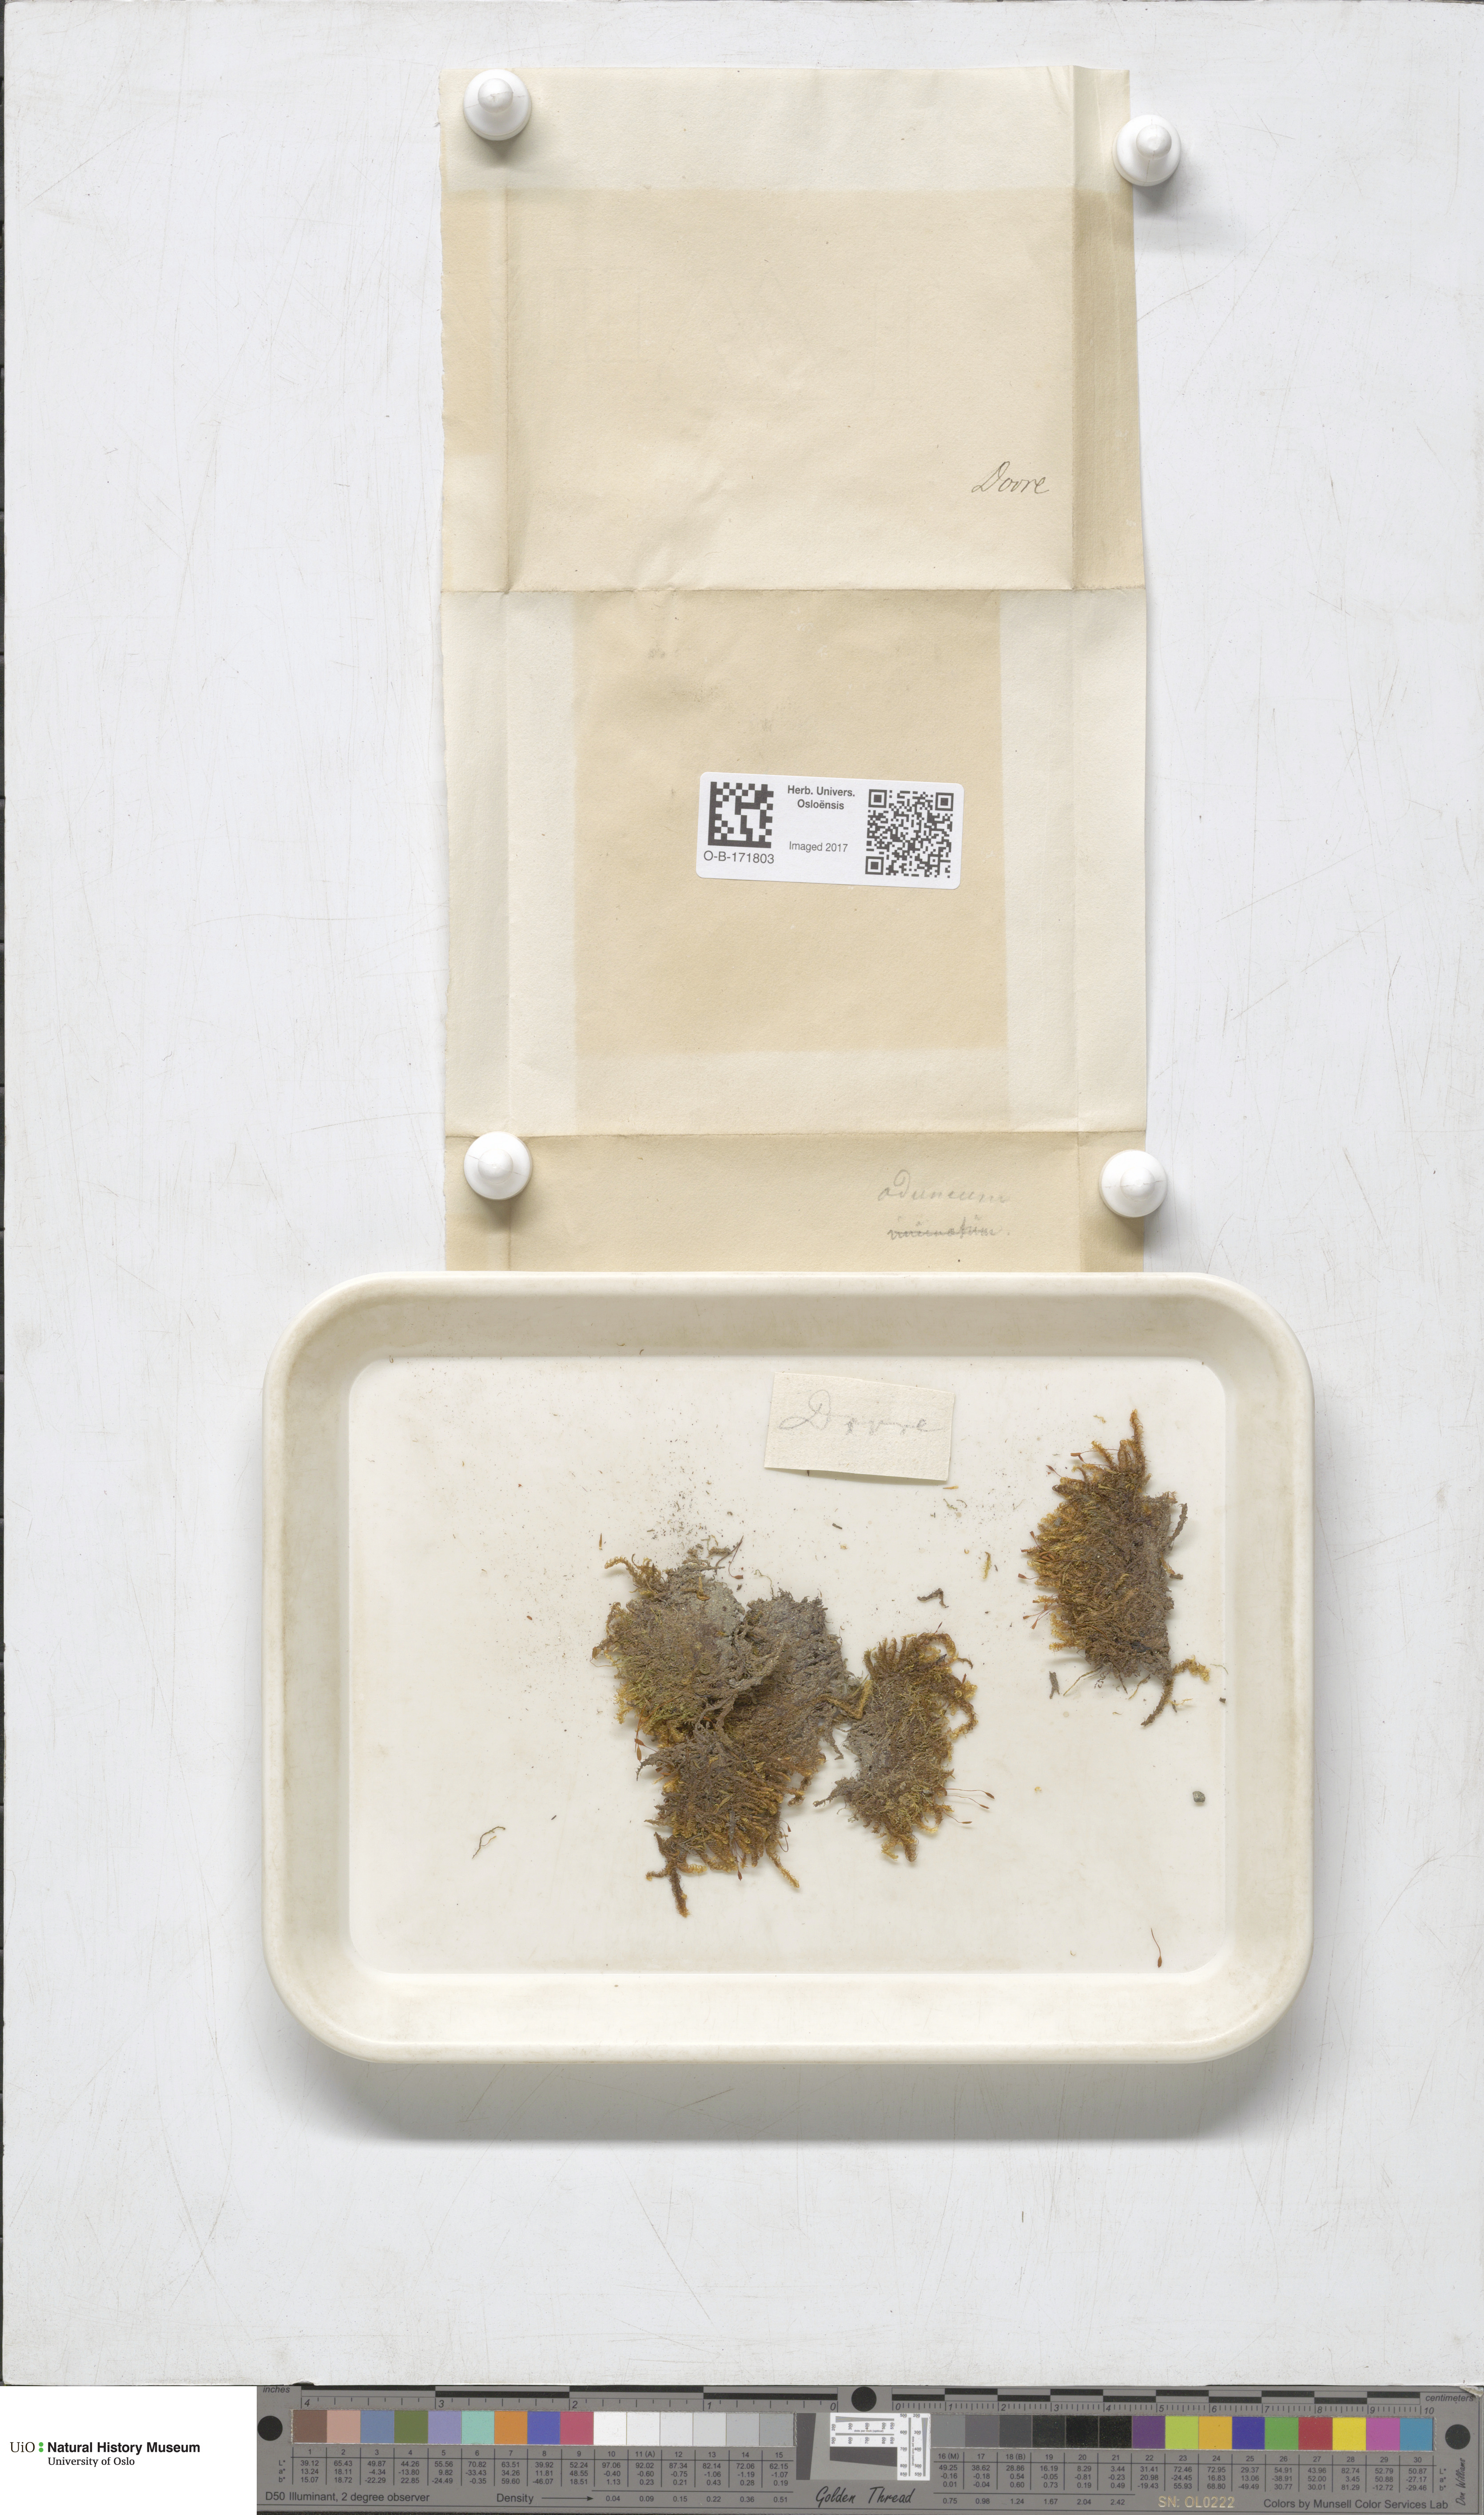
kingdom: Plantae
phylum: Bryophyta
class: Bryopsida
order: Hypnales
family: Amblystegiaceae
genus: Drepanocladus
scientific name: Drepanocladus aduncus
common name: Knieff's hook moss
